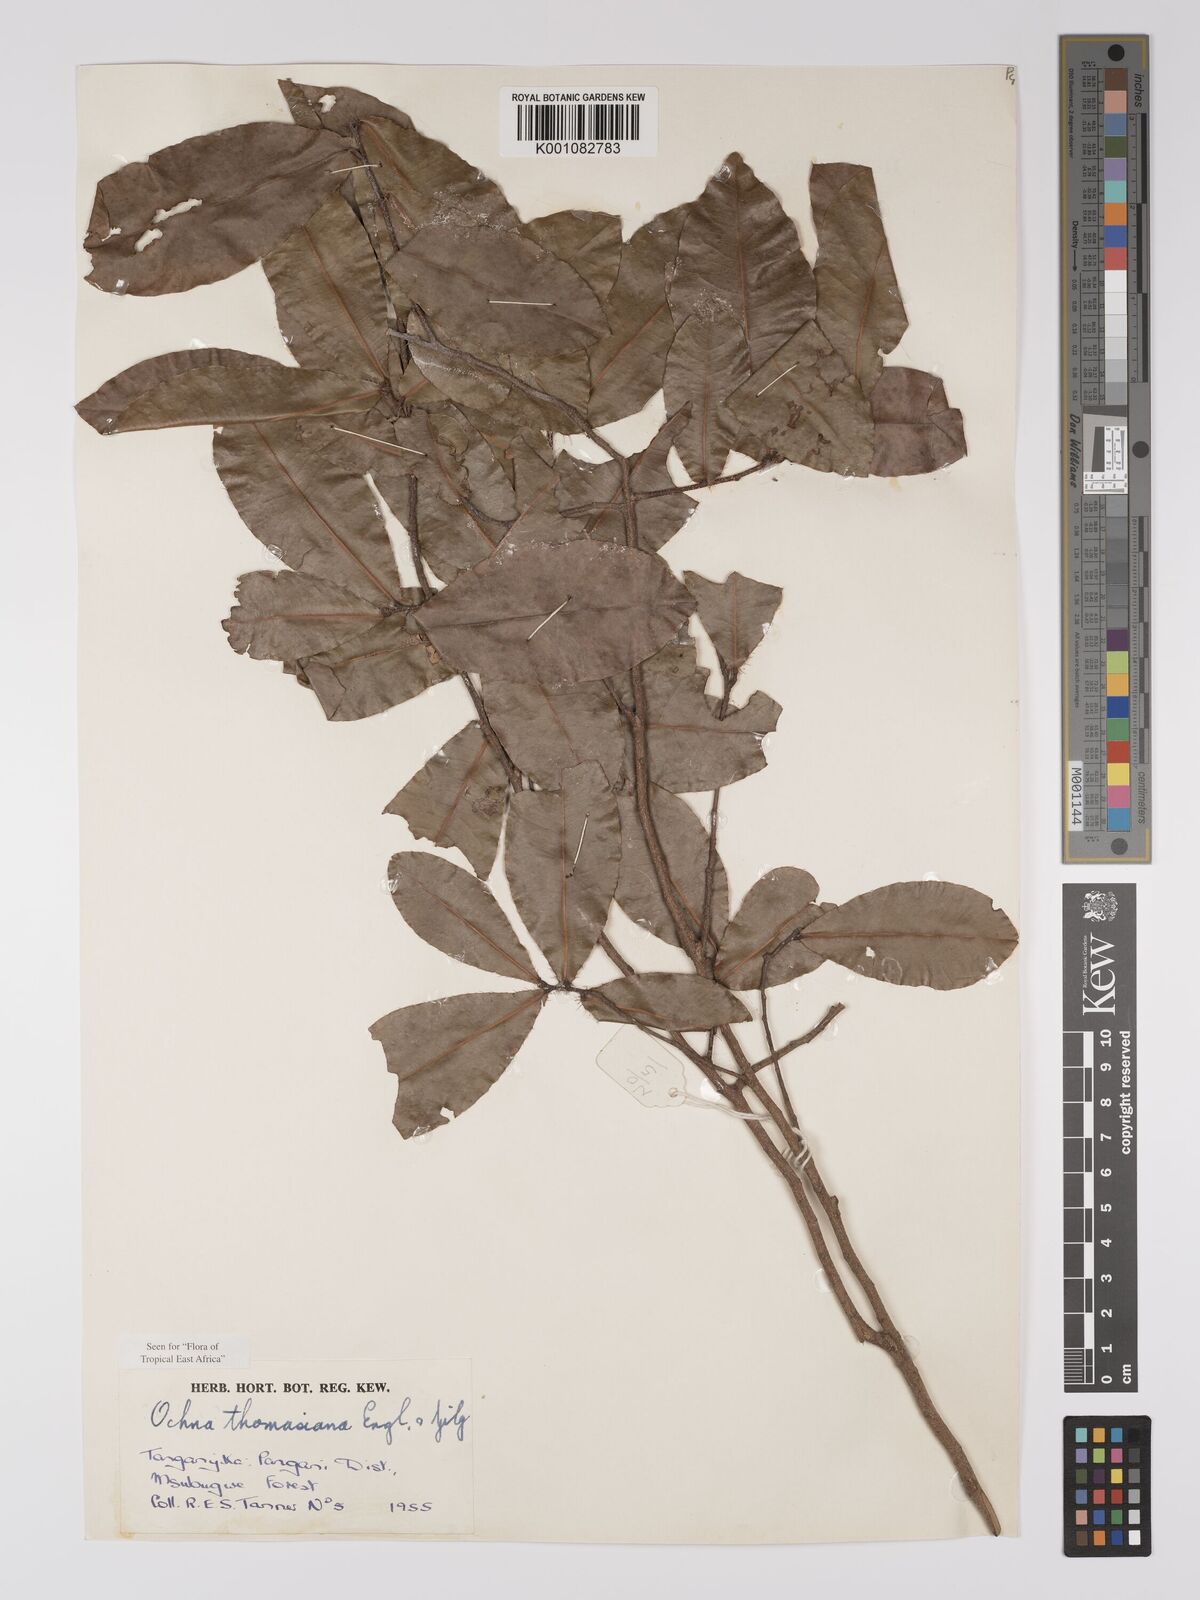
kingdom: Plantae
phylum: Tracheophyta
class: Magnoliopsida
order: Malpighiales
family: Ochnaceae
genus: Ochna
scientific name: Ochna thomasiana
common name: Thomas' bird's-eye bush
